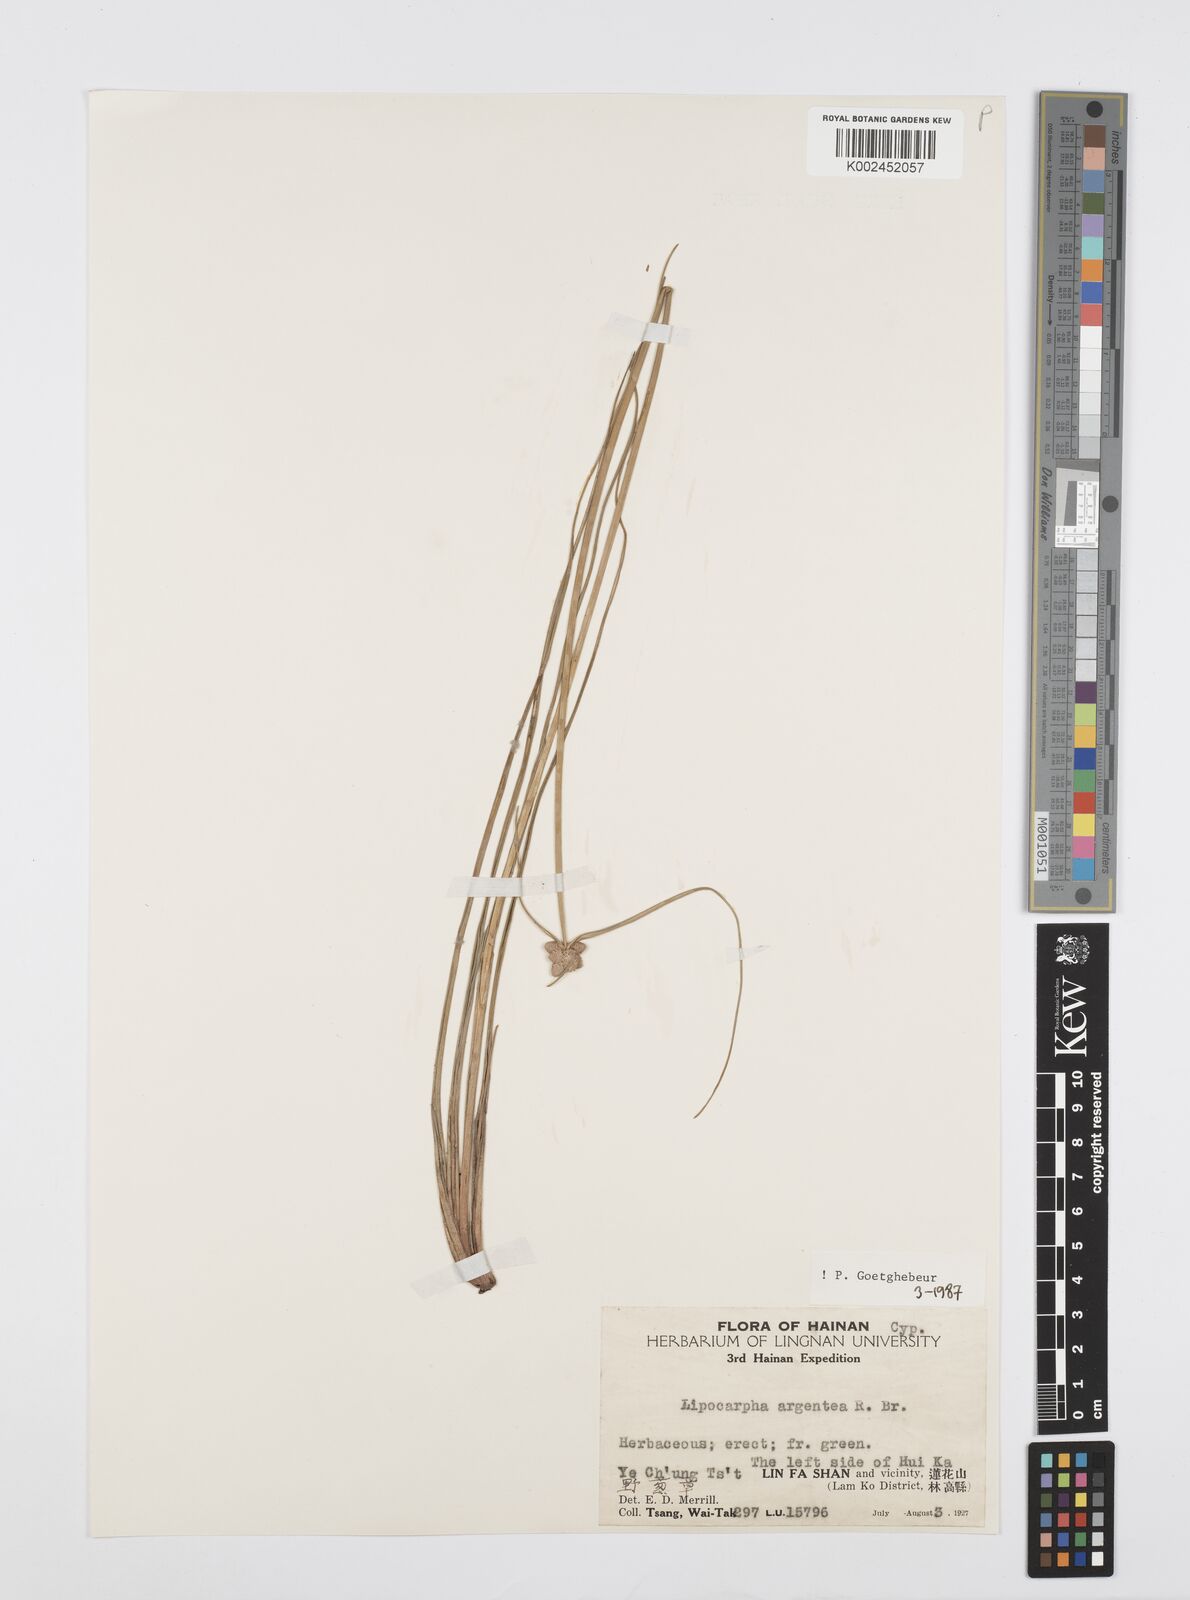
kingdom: Plantae
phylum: Tracheophyta
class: Liliopsida
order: Poales
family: Cyperaceae
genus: Cyperus
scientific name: Cyperus albescens
